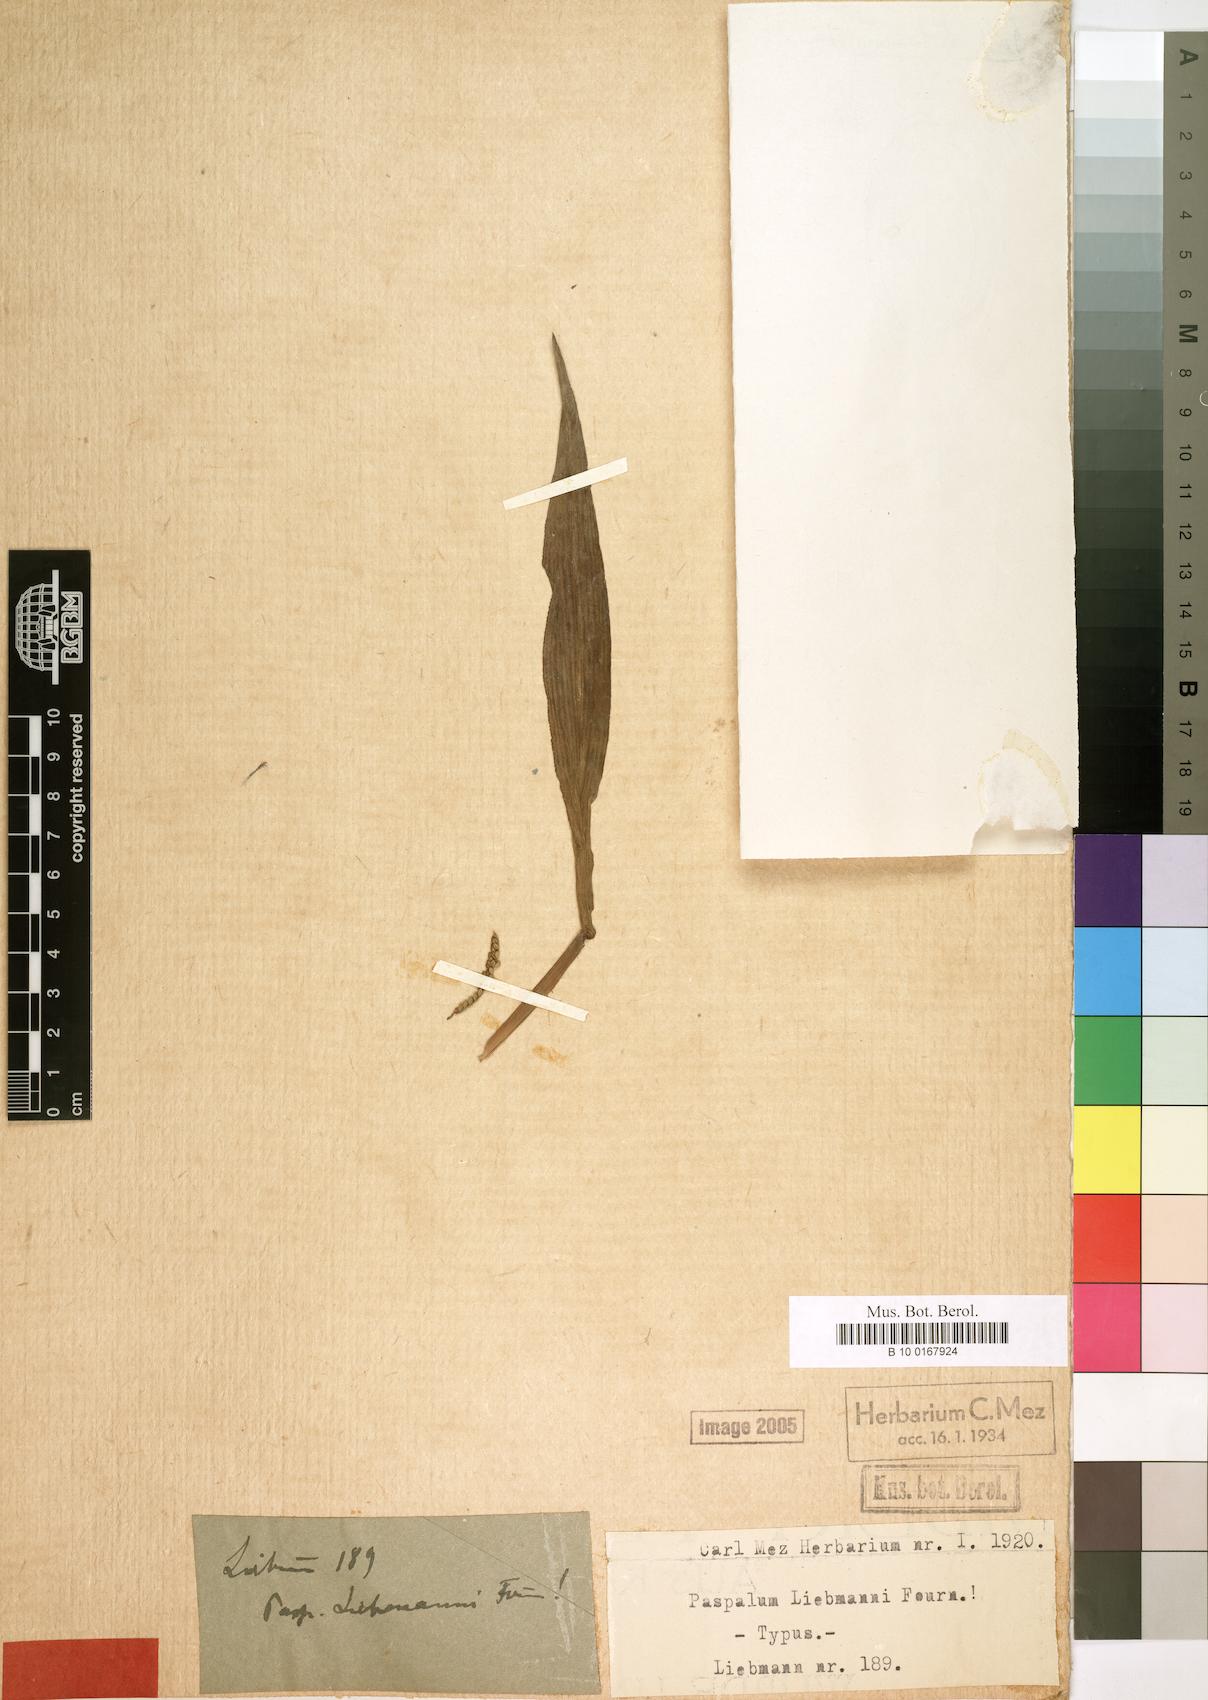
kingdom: Plantae
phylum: Tracheophyta
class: Liliopsida
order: Poales
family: Poaceae
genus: Paspalum
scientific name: Paspalum tenellum
